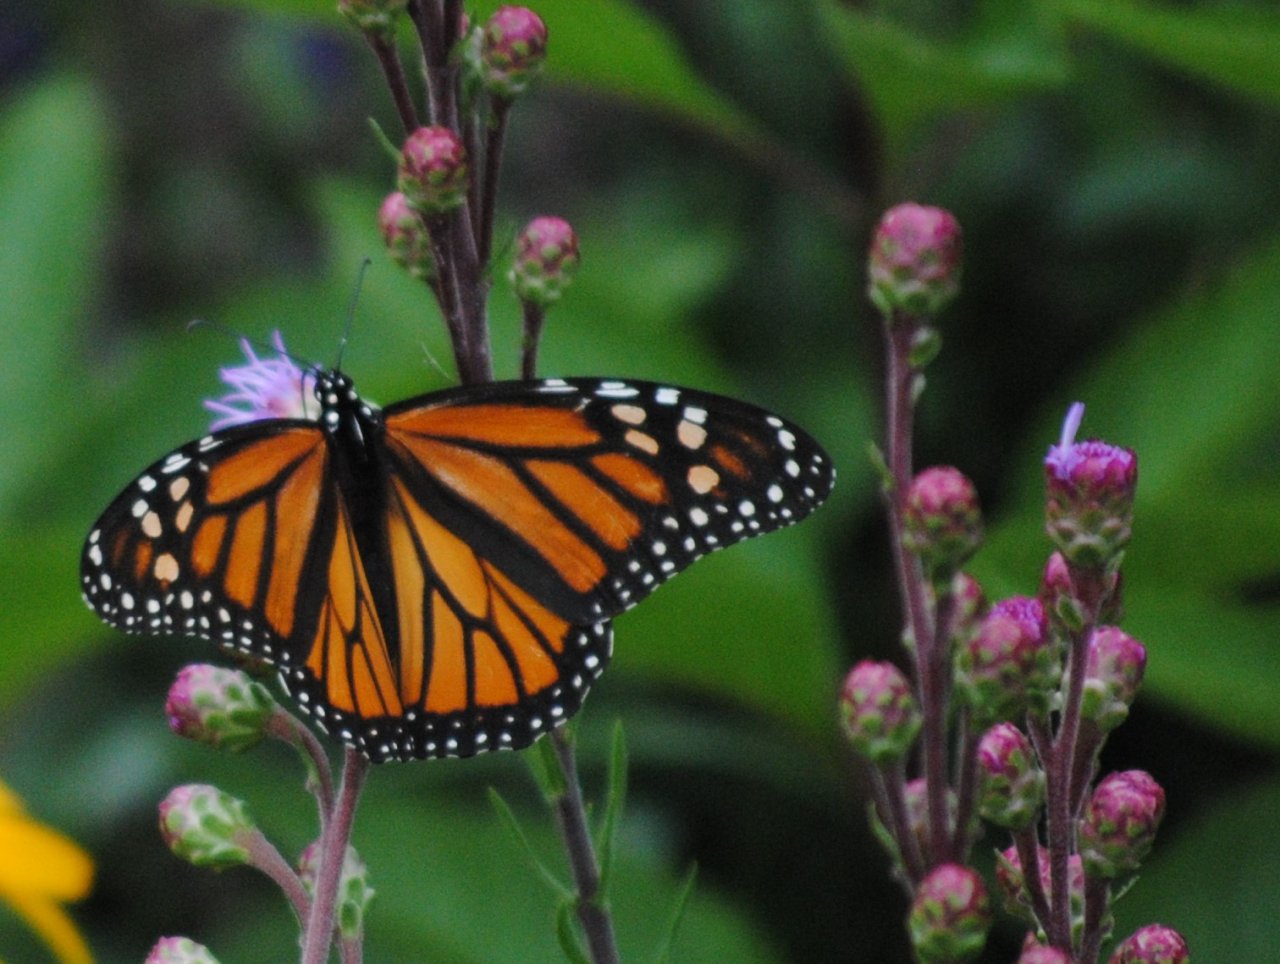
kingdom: Animalia
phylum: Arthropoda
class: Insecta
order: Lepidoptera
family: Nymphalidae
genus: Danaus
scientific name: Danaus plexippus
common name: Monarch
